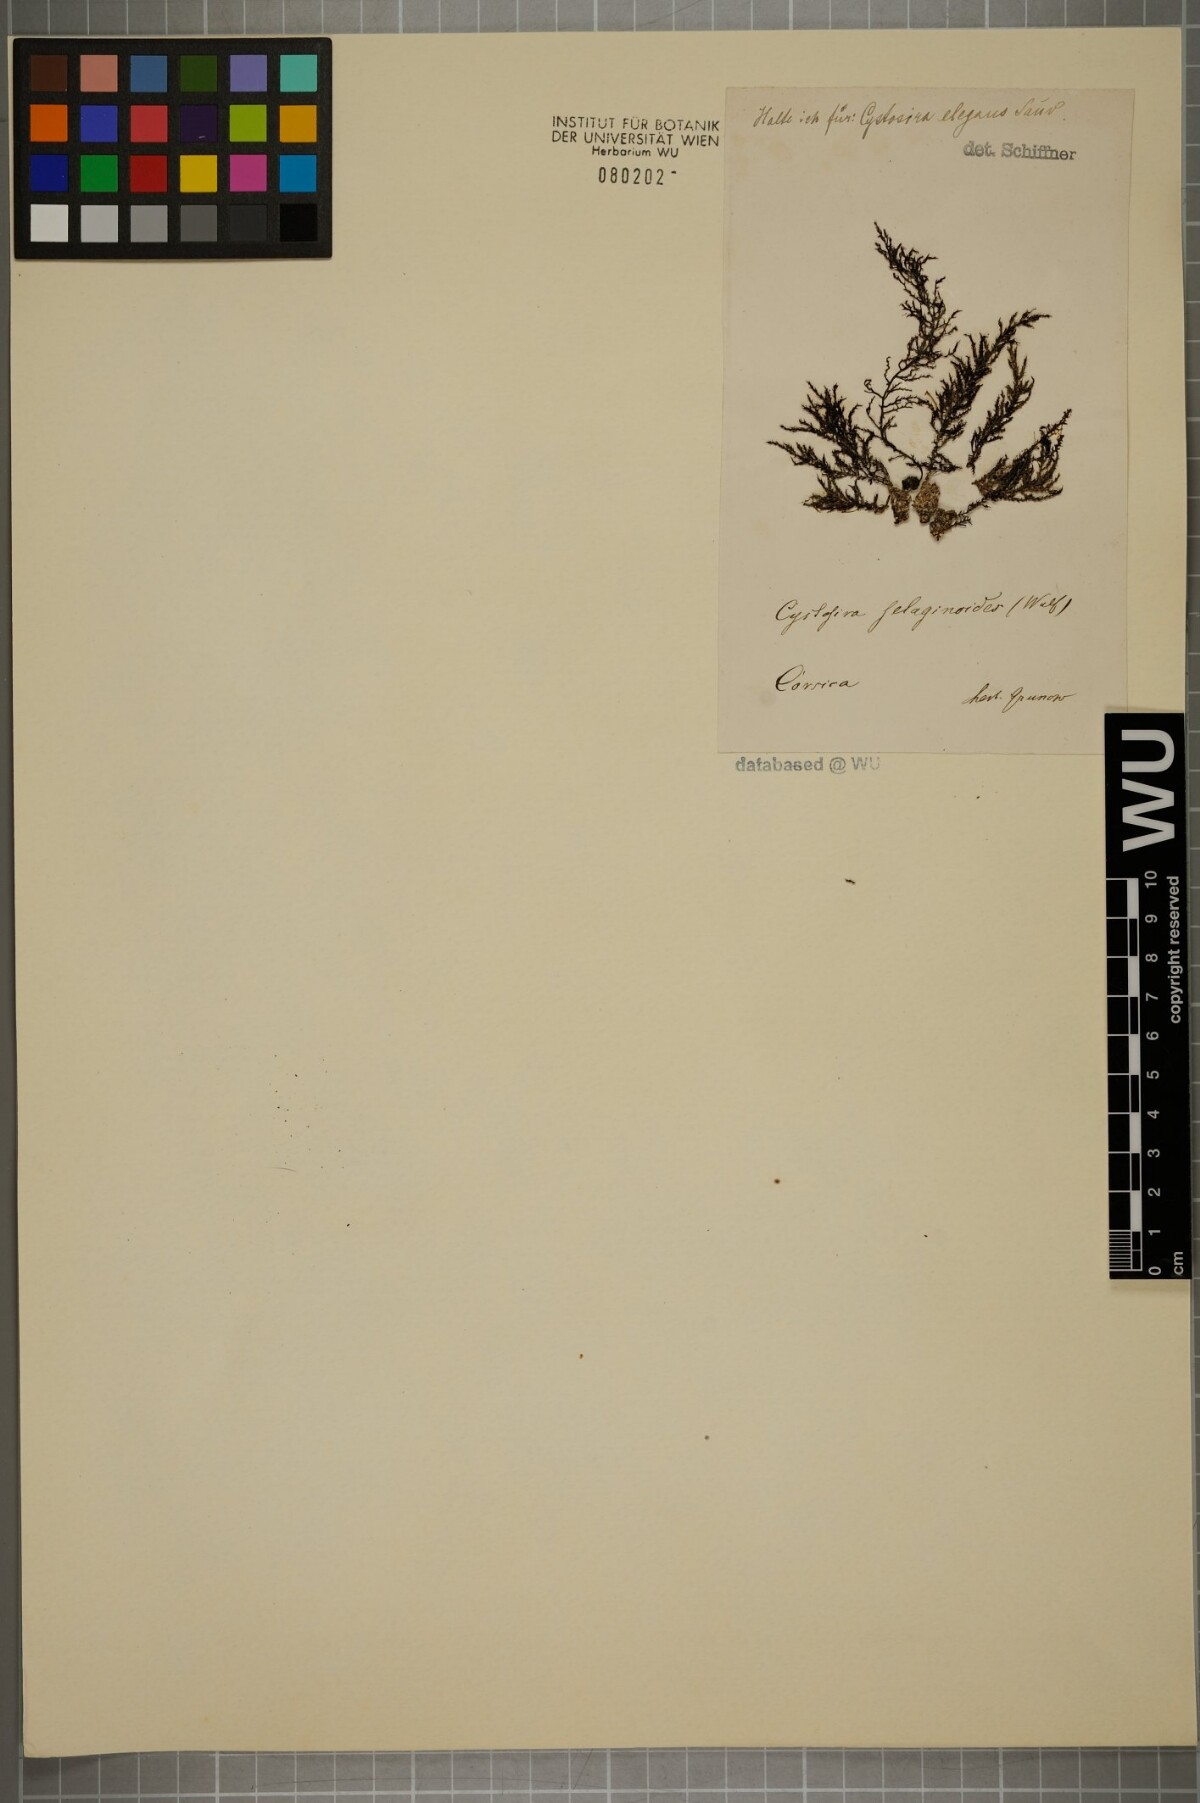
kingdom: Chromista
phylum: Ochrophyta
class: Phaeophyceae
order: Fucales
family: Sargassaceae
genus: Cystoseira
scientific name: Cystoseira selaginoides
